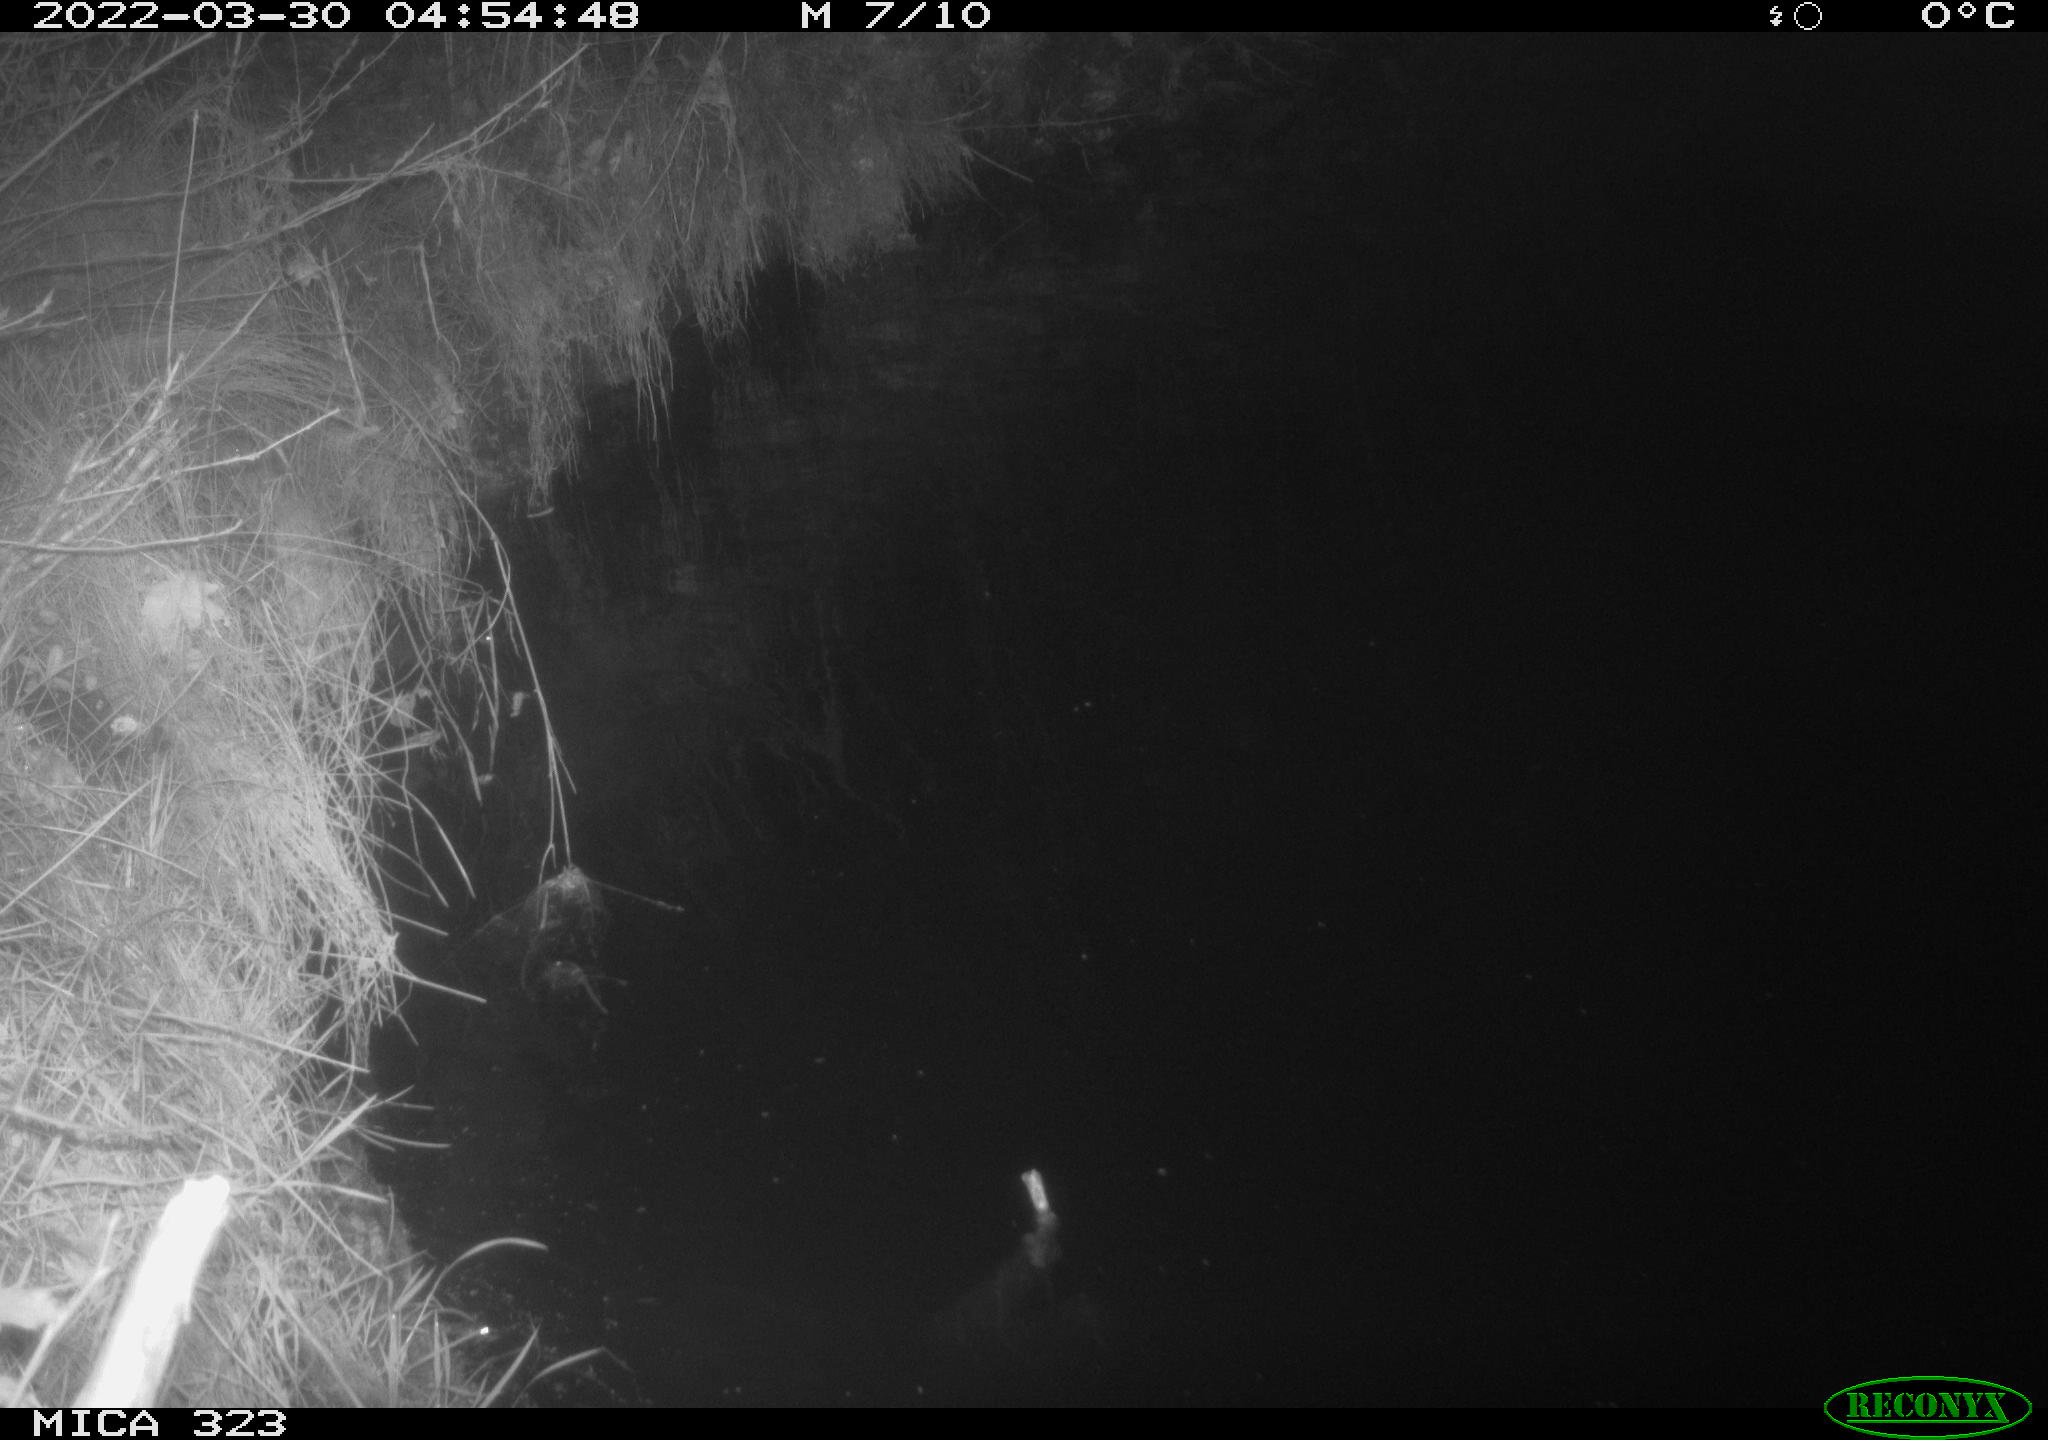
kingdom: Animalia
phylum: Chordata
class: Aves
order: Anseriformes
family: Anatidae
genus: Anas
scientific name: Anas
